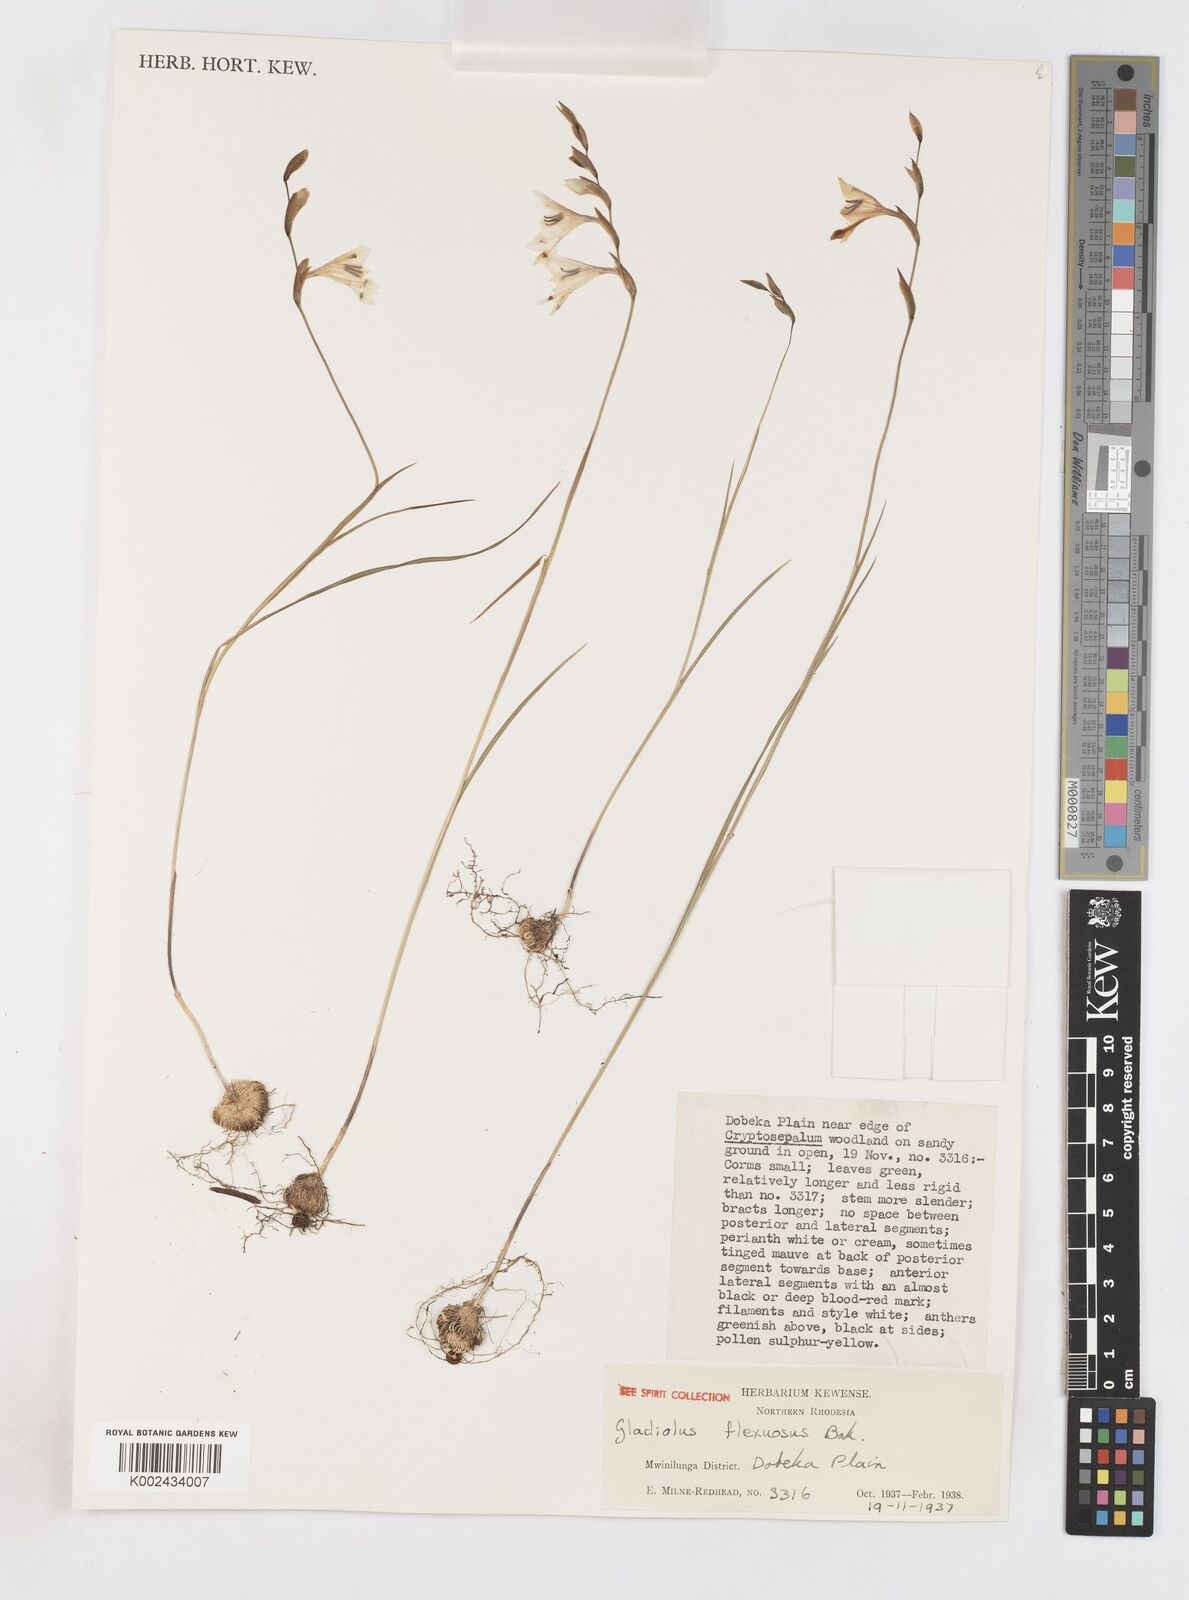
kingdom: Plantae
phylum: Tracheophyta
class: Liliopsida
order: Asparagales
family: Iridaceae
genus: Gladiolus
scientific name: Gladiolus atropurpureus
